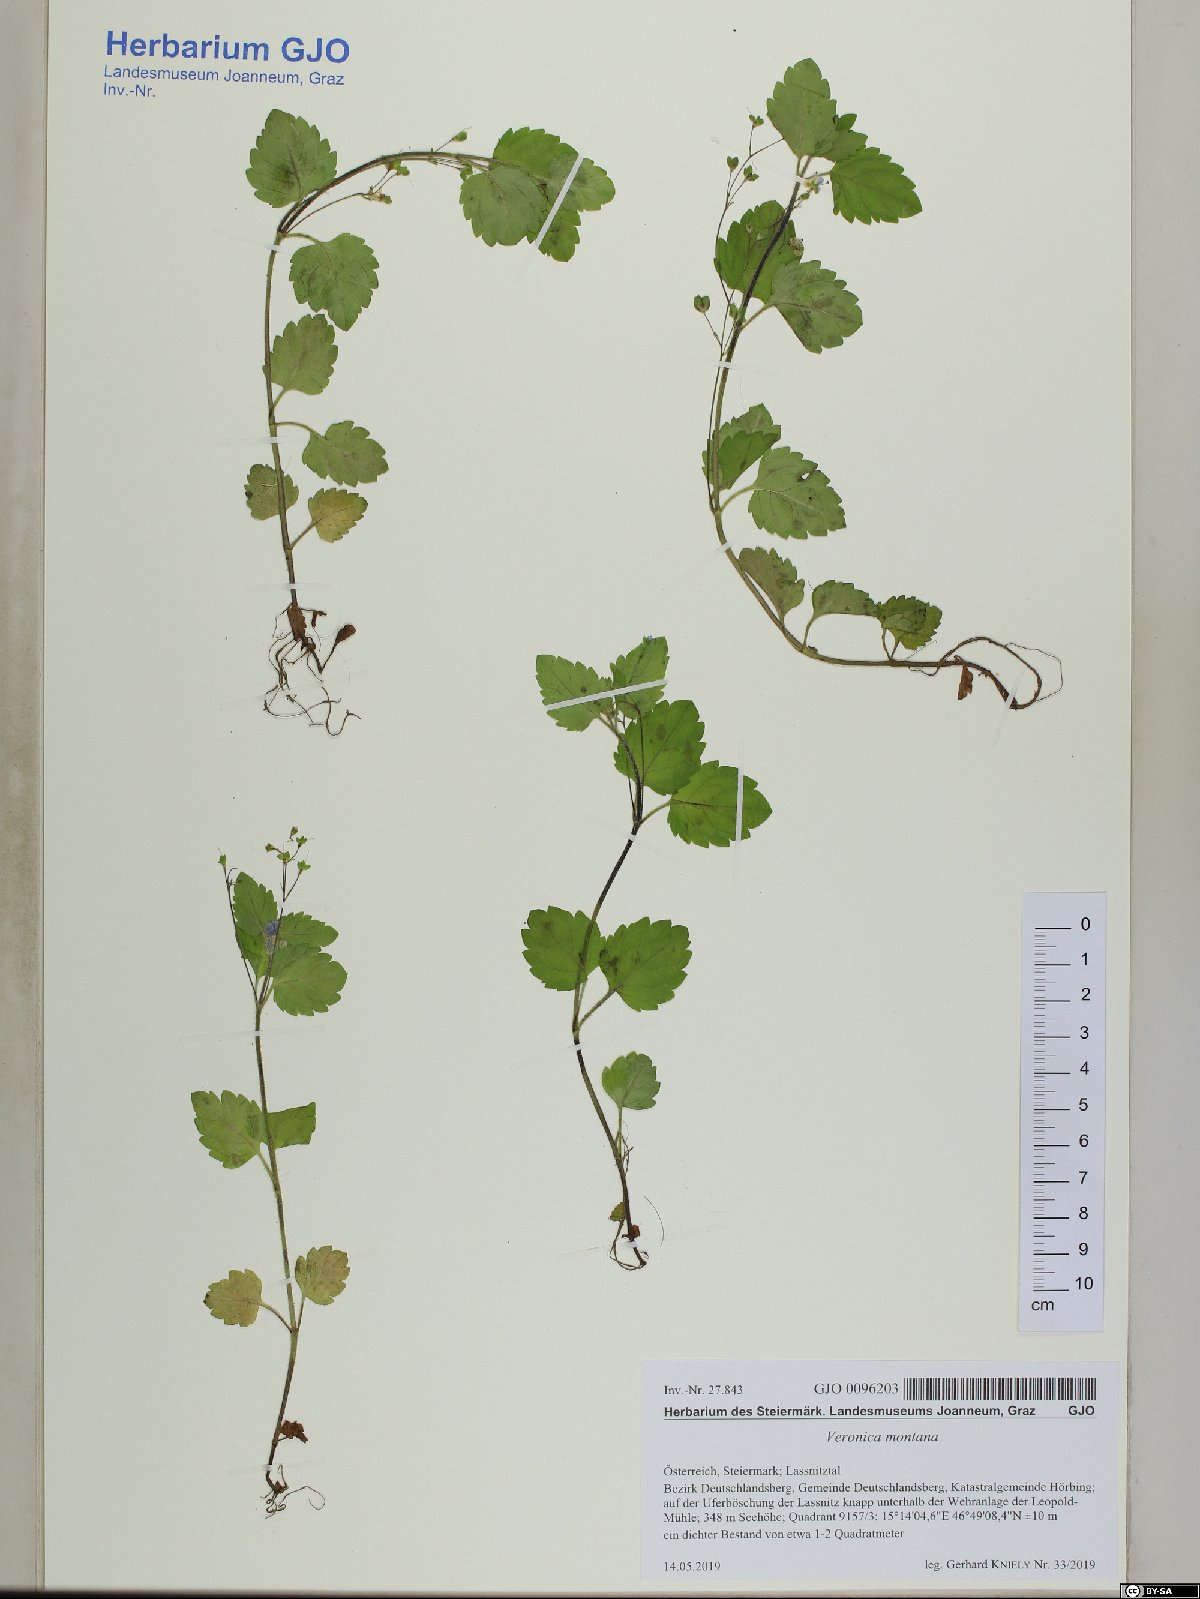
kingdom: Plantae
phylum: Tracheophyta
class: Magnoliopsida
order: Lamiales
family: Plantaginaceae
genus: Veronica
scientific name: Veronica montana
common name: Wood speedwell
